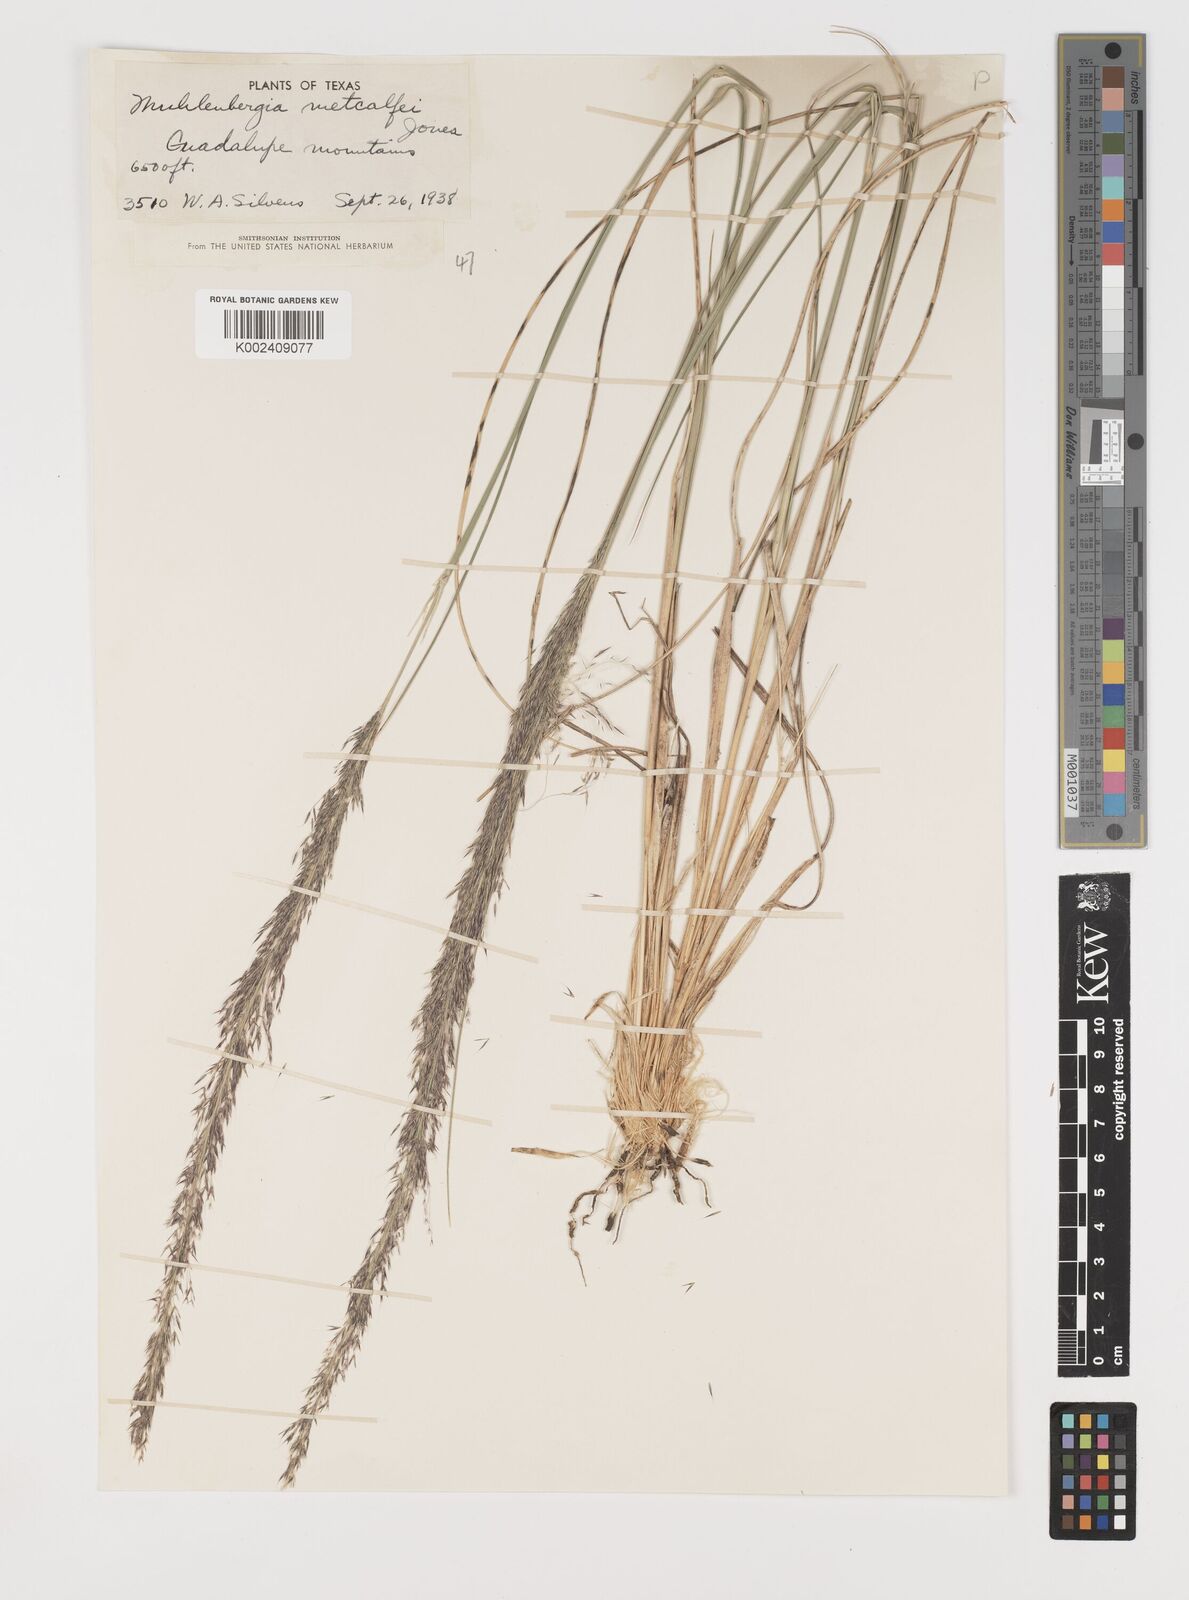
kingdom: Plantae
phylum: Tracheophyta
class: Liliopsida
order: Poales
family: Poaceae
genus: Muhlenbergia
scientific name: Muhlenbergia rigida
